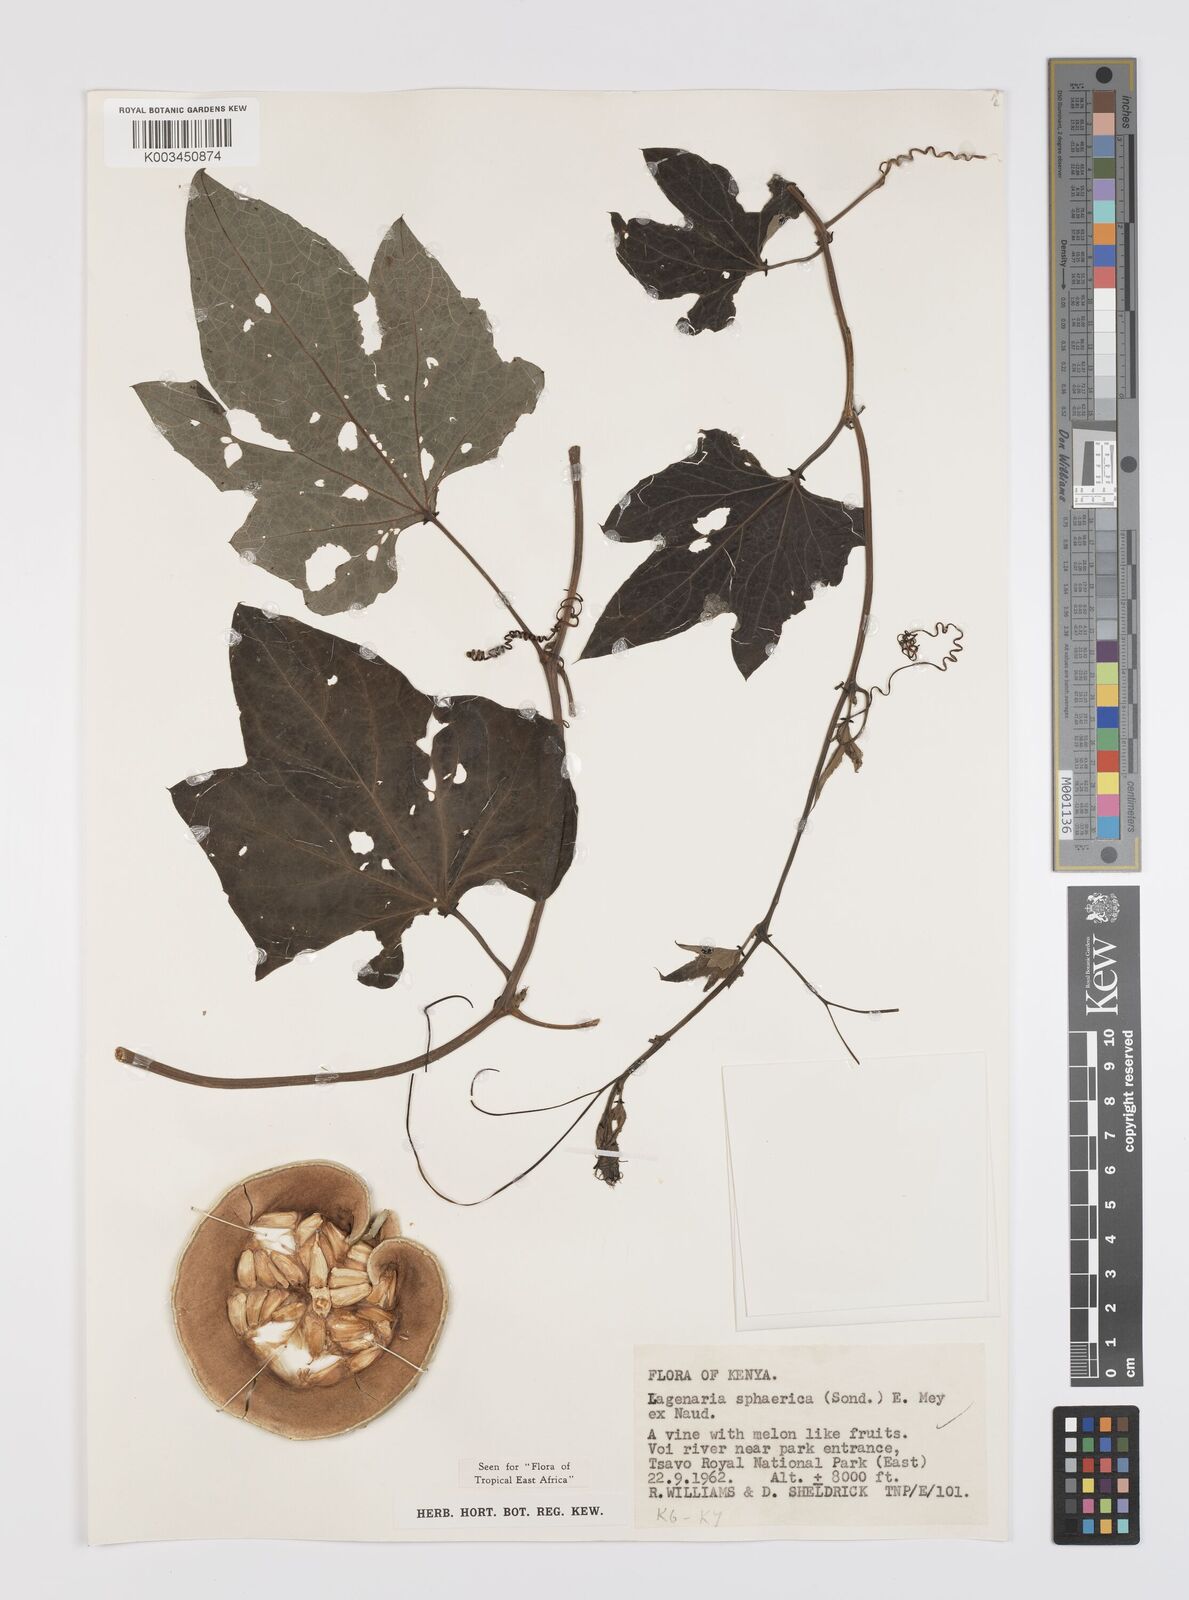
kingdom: Plantae
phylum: Tracheophyta
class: Magnoliopsida
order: Cucurbitales
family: Cucurbitaceae
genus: Lagenaria
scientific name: Lagenaria sphaerica
